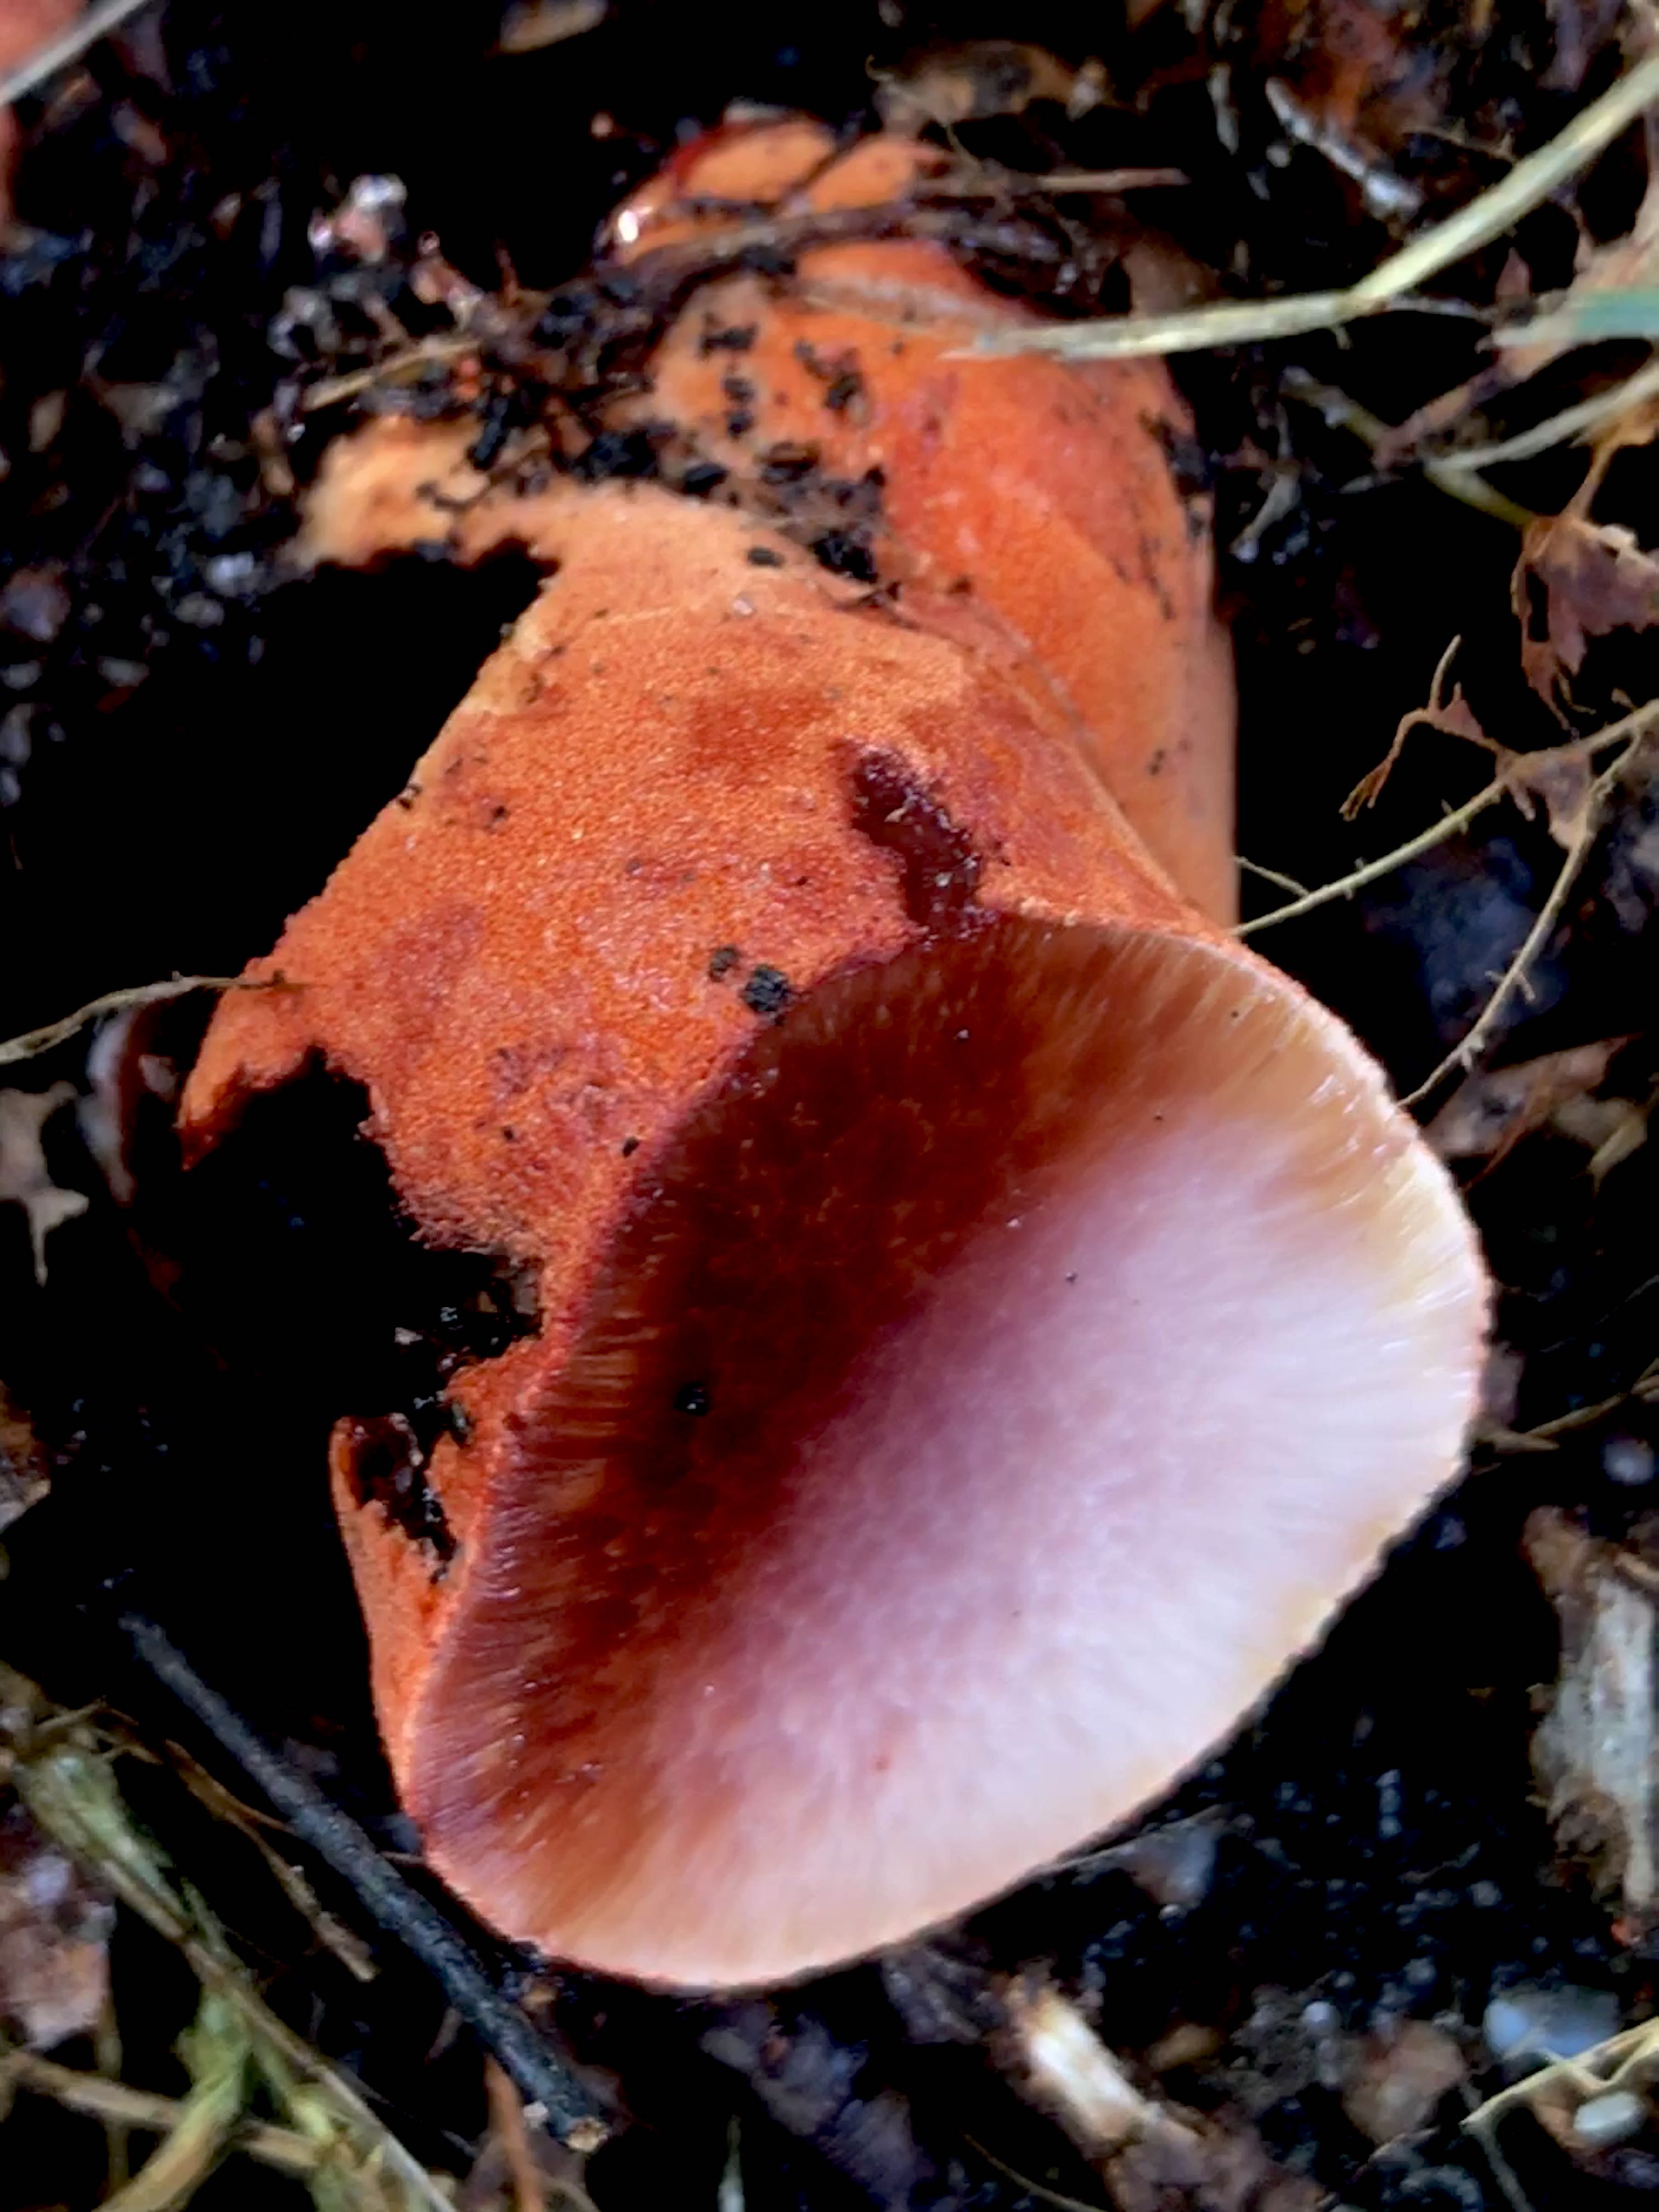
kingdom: Fungi
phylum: Basidiomycota
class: Agaricomycetes
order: Agaricales
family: Fistulinaceae
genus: Fistulina
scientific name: Fistulina hepatica
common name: oksetunge
